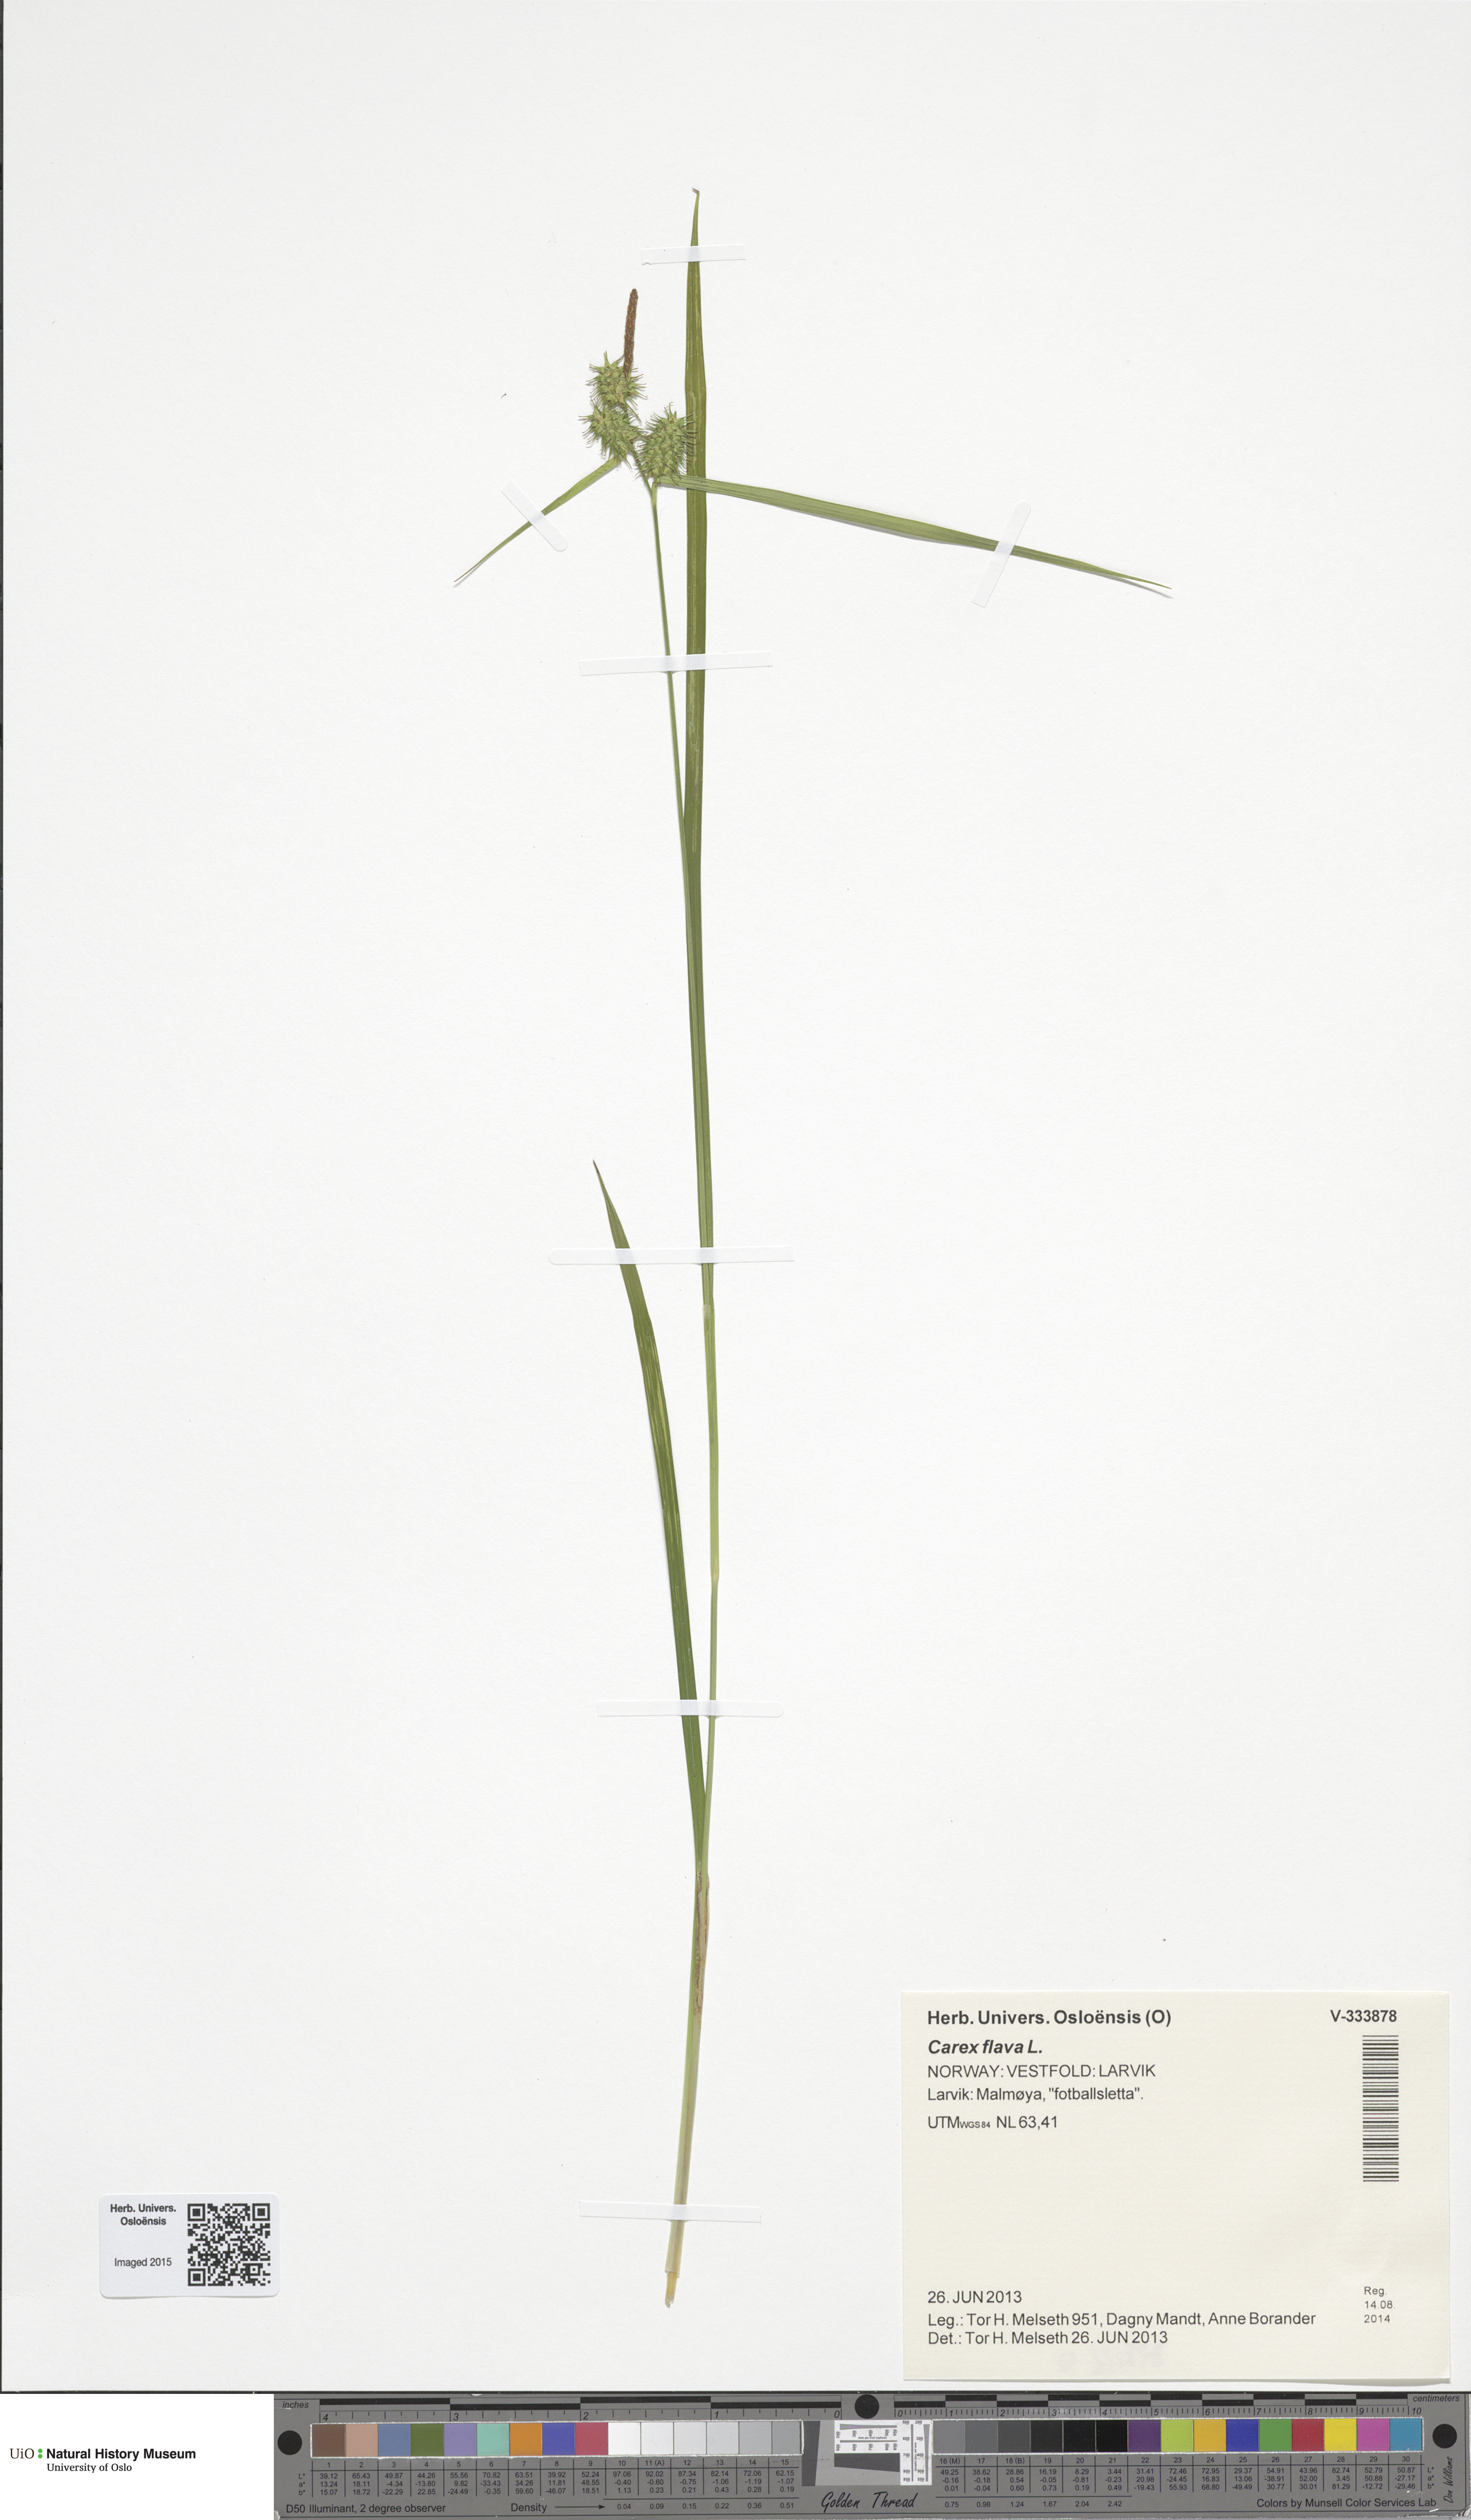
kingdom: Plantae
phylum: Tracheophyta
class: Liliopsida
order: Poales
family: Cyperaceae
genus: Carex
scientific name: Carex flava
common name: Large yellow-sedge
